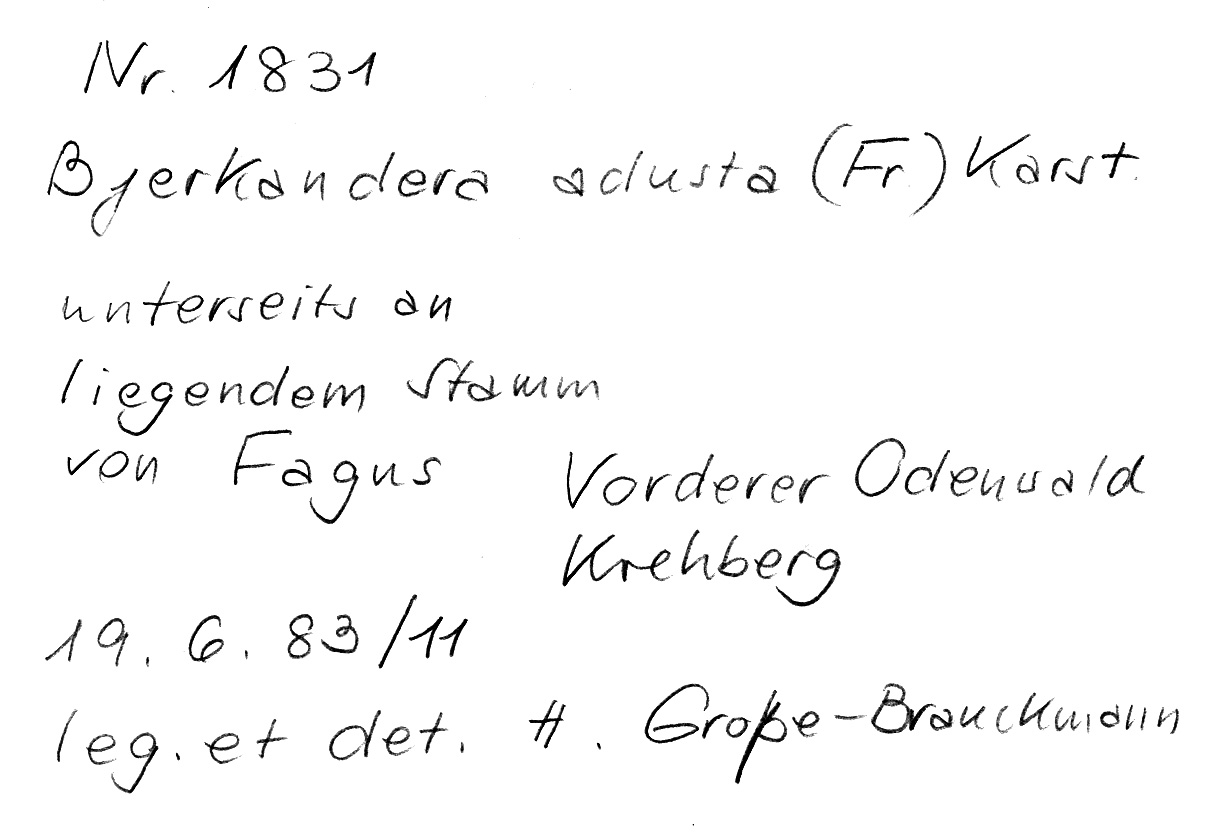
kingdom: Fungi
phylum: Basidiomycota
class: Agaricomycetes
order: Polyporales
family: Phanerochaetaceae
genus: Bjerkandera
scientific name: Bjerkandera adusta
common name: Smoky bracket
